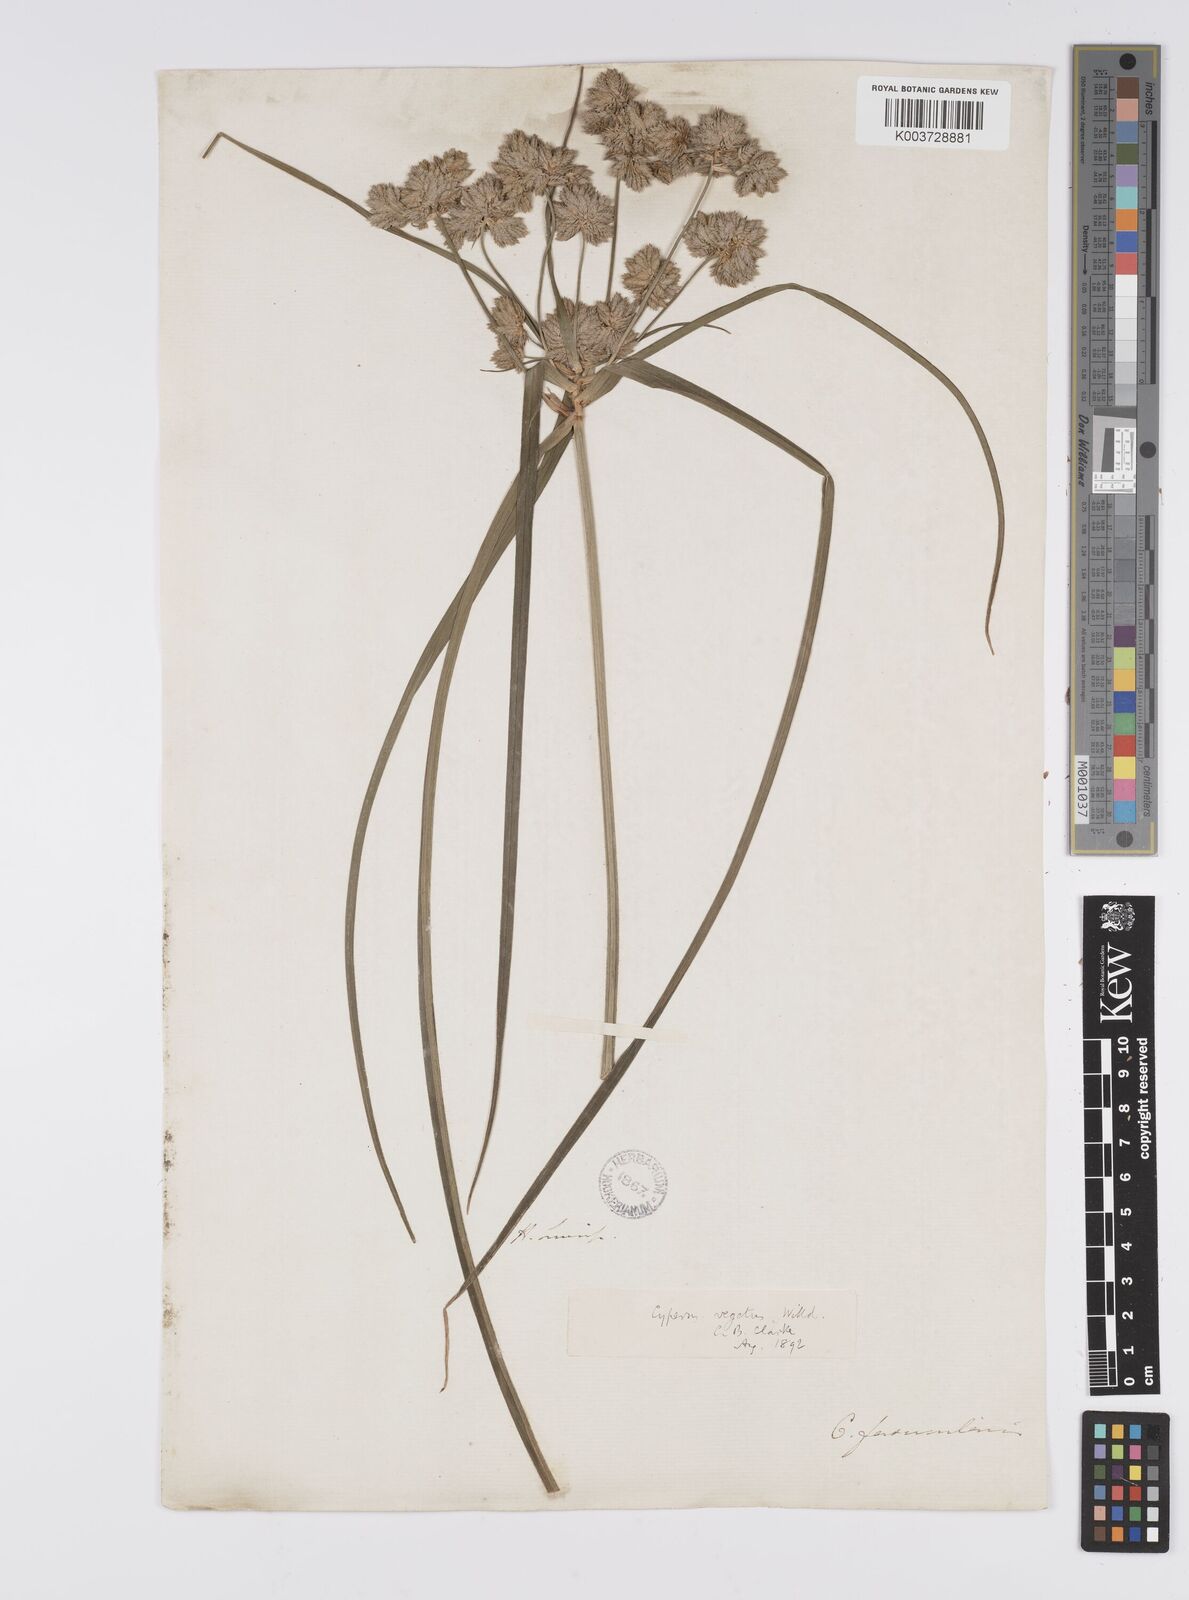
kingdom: Plantae
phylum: Tracheophyta
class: Liliopsida
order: Poales
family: Cyperaceae
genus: Cyperus
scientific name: Cyperus eragrostis
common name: Tall flatsedge
